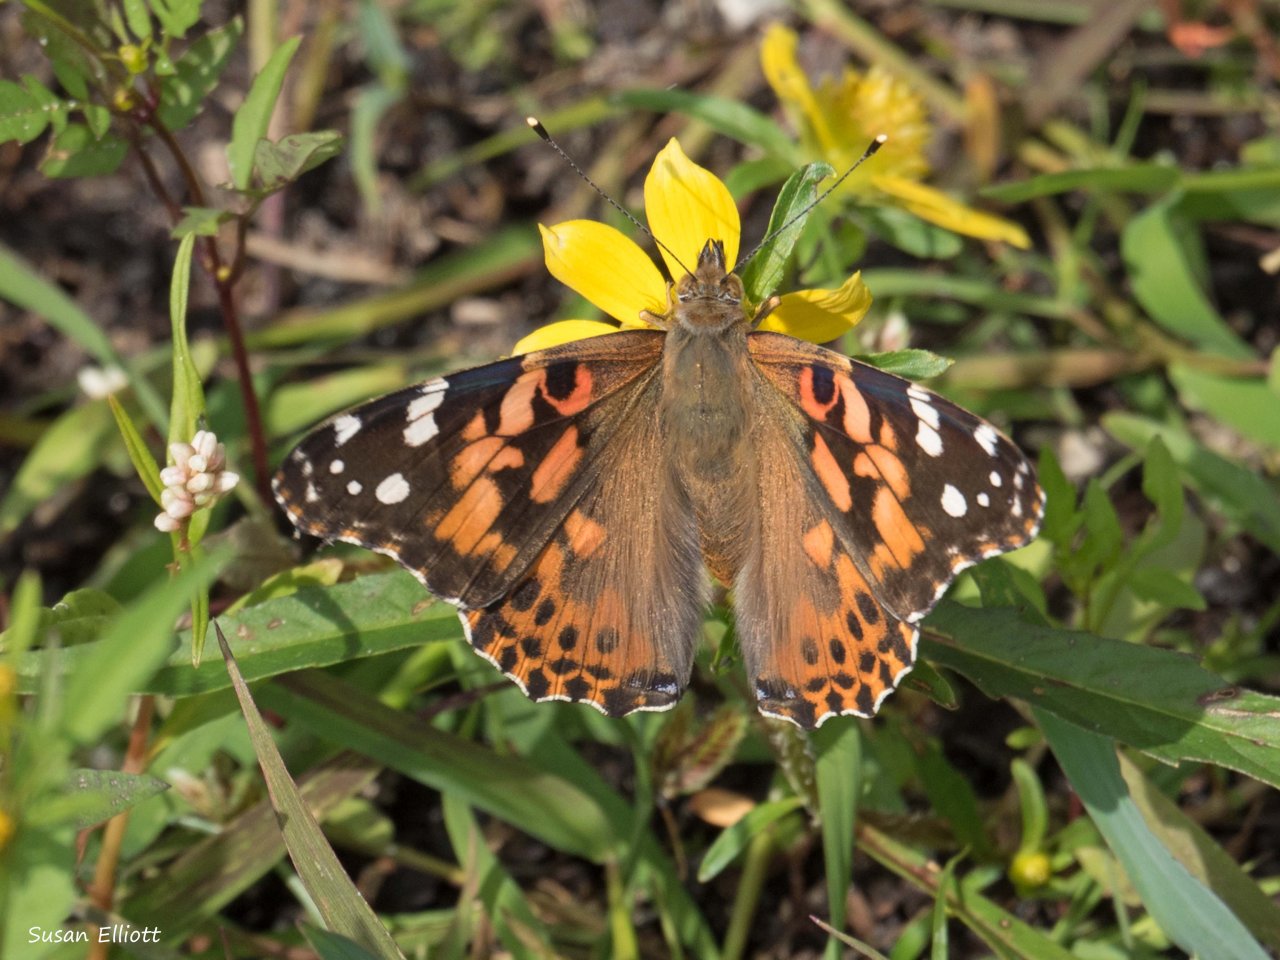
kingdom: Animalia
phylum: Arthropoda
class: Insecta
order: Lepidoptera
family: Nymphalidae
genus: Vanessa
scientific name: Vanessa cardui
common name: Painted Lady
